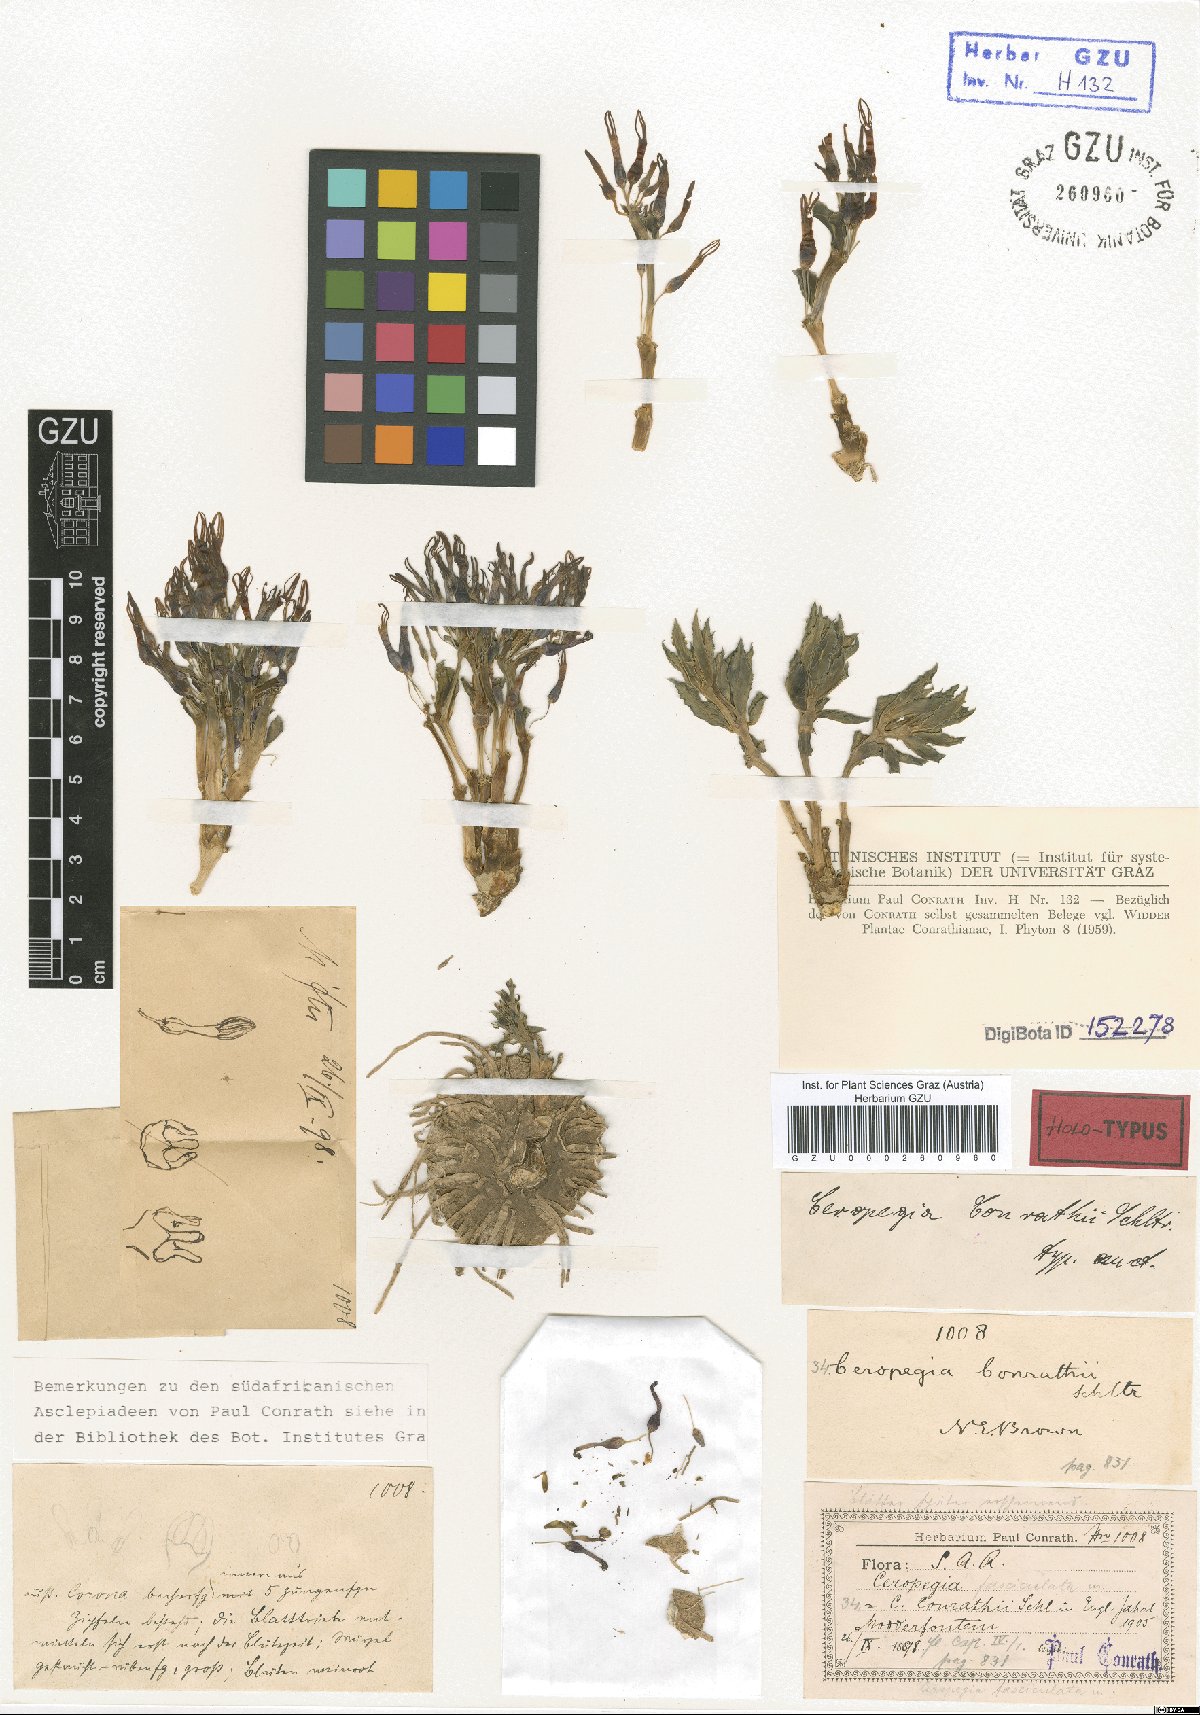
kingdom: Plantae
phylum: Tracheophyta
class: Magnoliopsida
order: Gentianales
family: Apocynaceae
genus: Ceropegia
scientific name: Ceropegia conrathii
